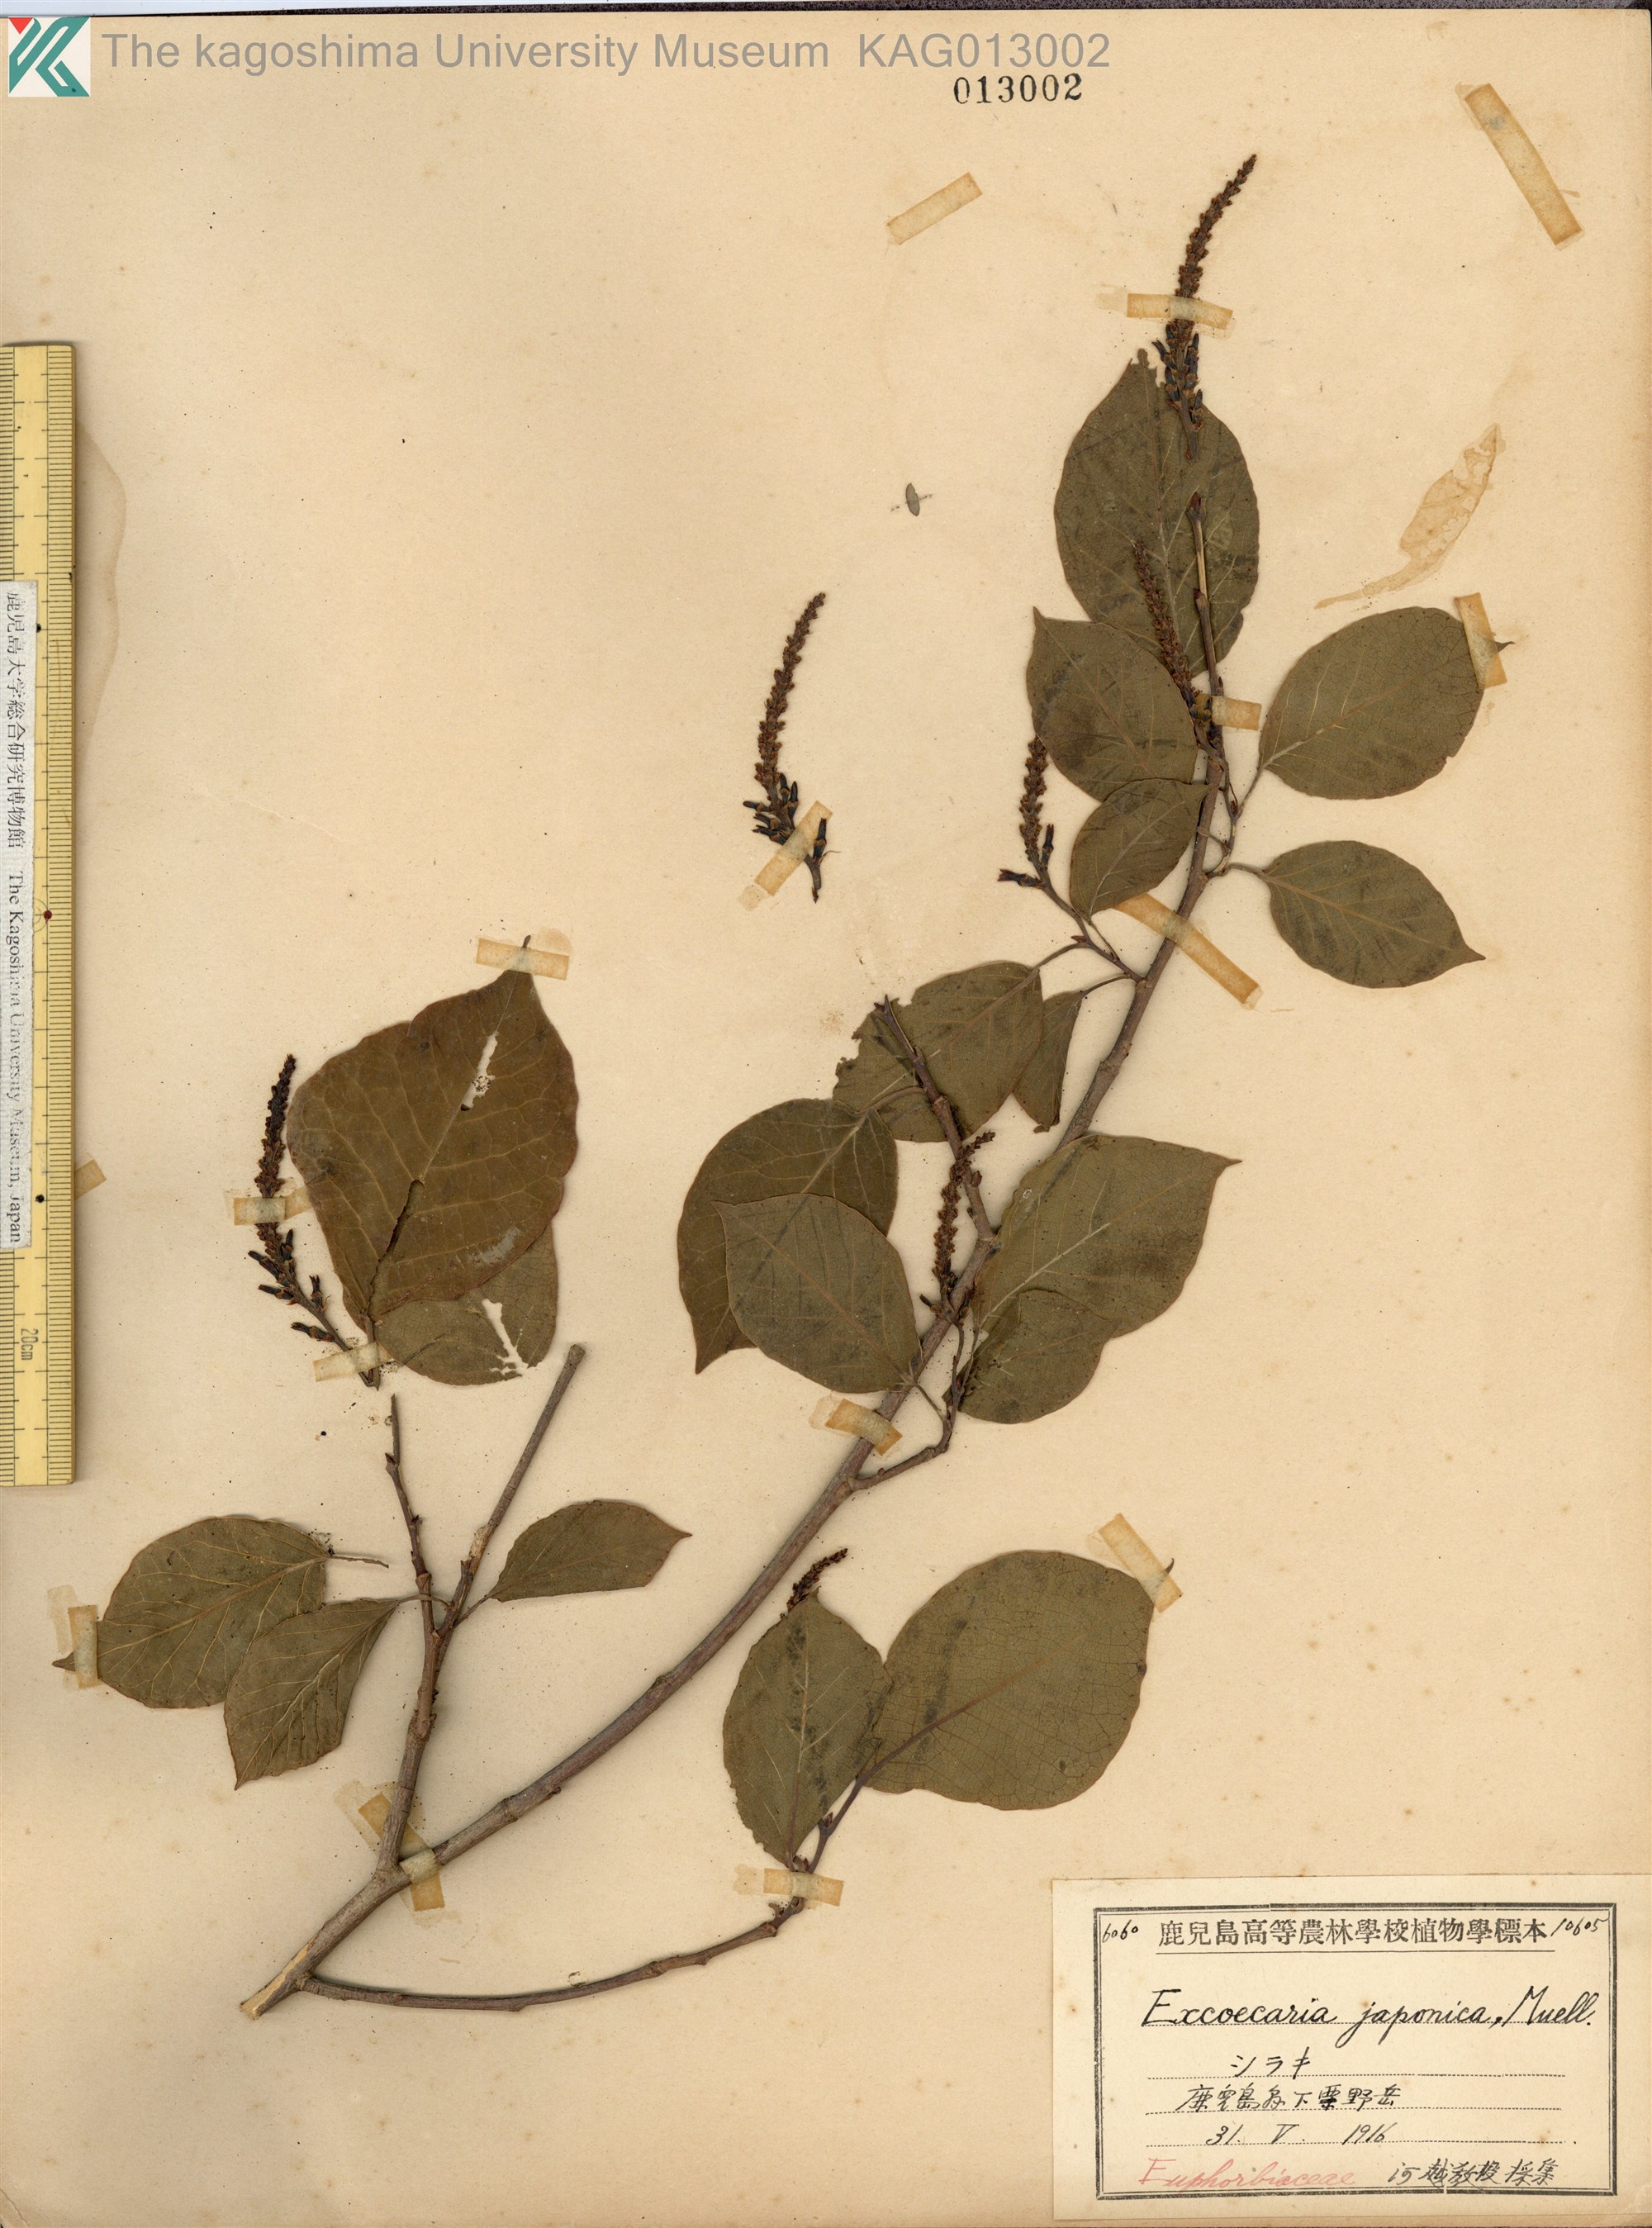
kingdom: Plantae
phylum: Tracheophyta
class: Magnoliopsida
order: Malpighiales
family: Euphorbiaceae
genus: Neoshirakia
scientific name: Neoshirakia japonica
